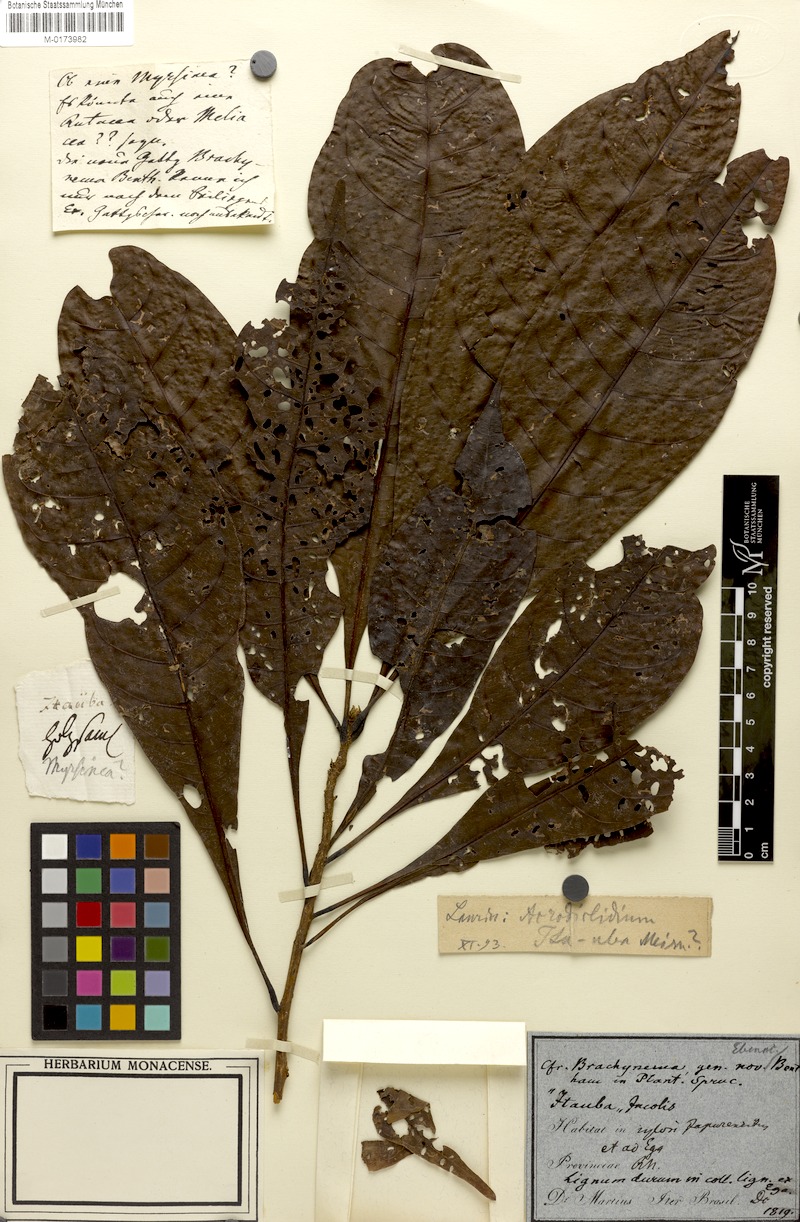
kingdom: Plantae
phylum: Tracheophyta
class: Magnoliopsida
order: Santalales
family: Erythropalaceae
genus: Brachynema
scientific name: Brachynema ramiflorum
